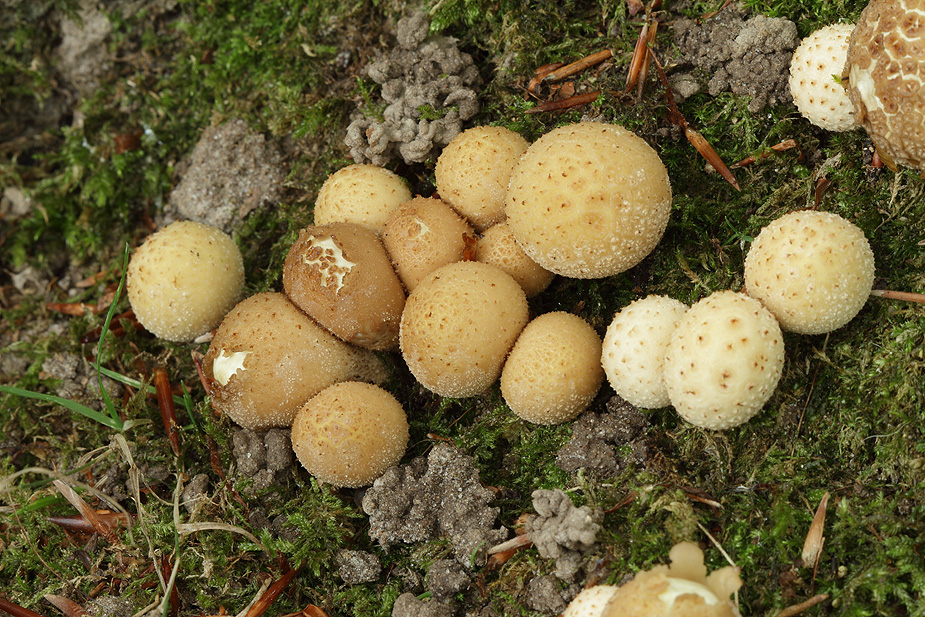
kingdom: Fungi
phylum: Basidiomycota
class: Agaricomycetes
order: Agaricales
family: Lycoperdaceae
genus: Apioperdon
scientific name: Apioperdon pyriforme
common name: pære-støvbold
